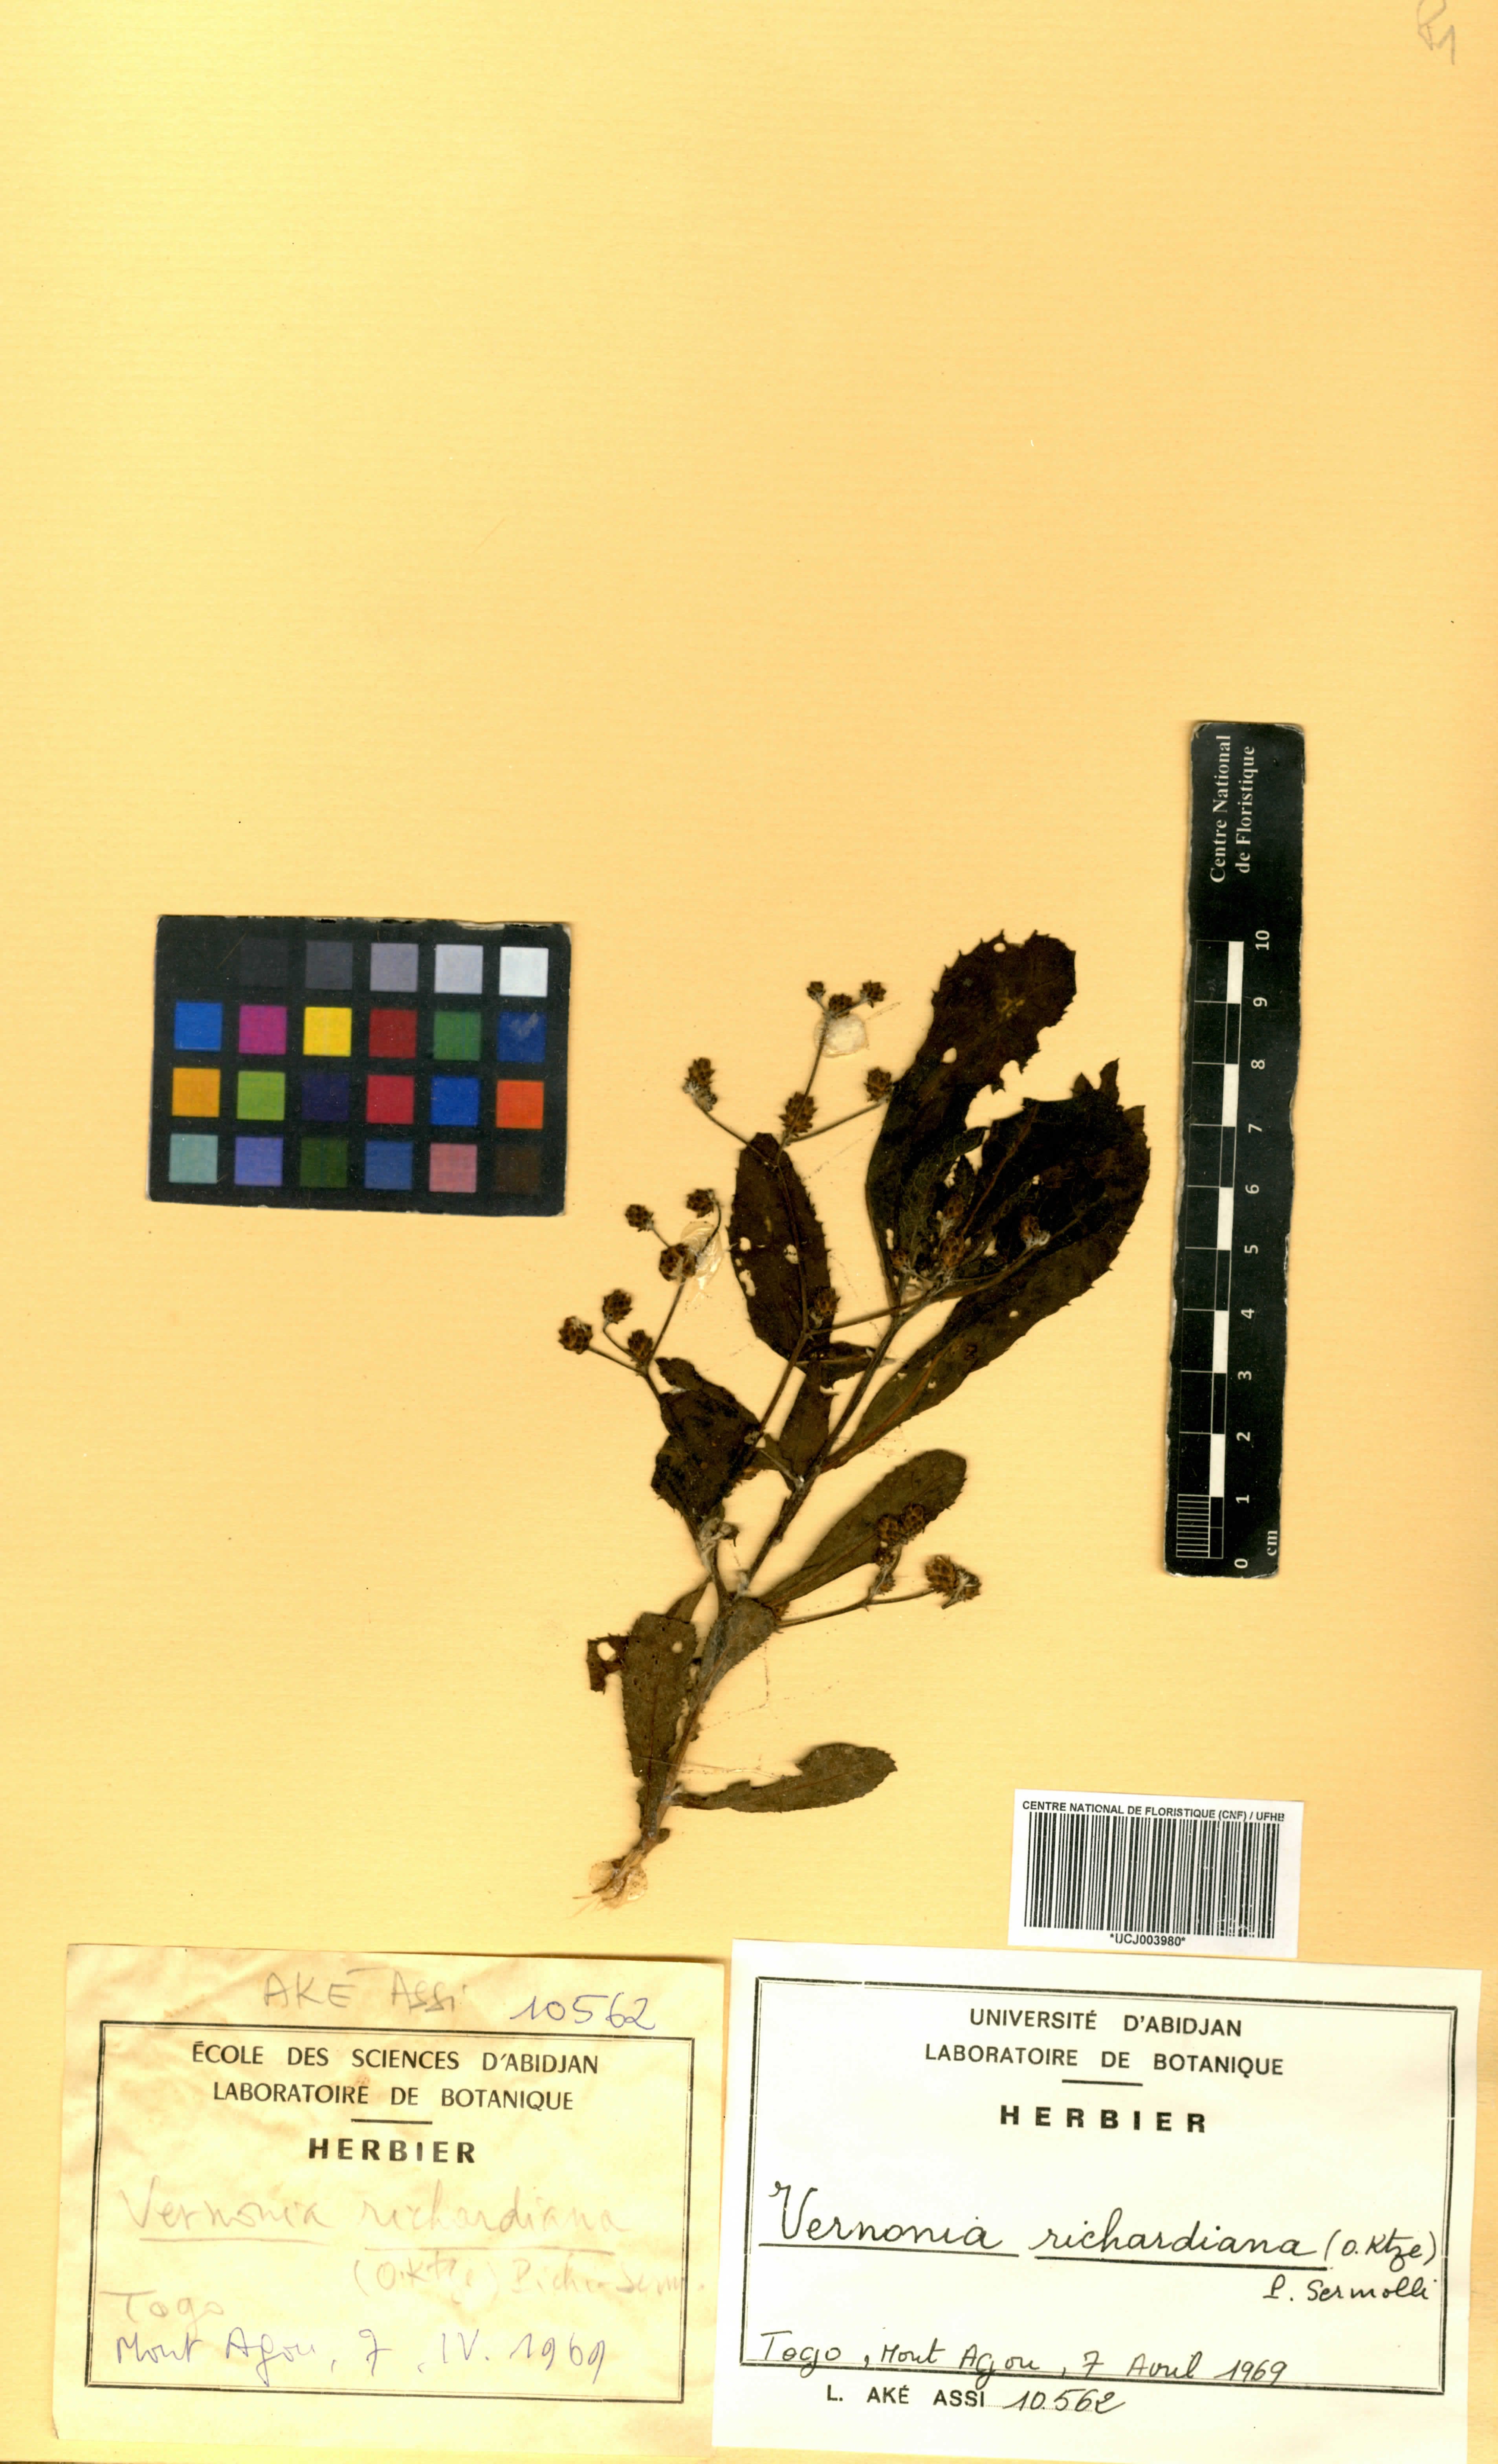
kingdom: Plantae
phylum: Tracheophyta
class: Magnoliopsida
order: Asterales
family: Asteraceae
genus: Gymnanthemum
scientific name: Gymnanthemum theophrastifolium
